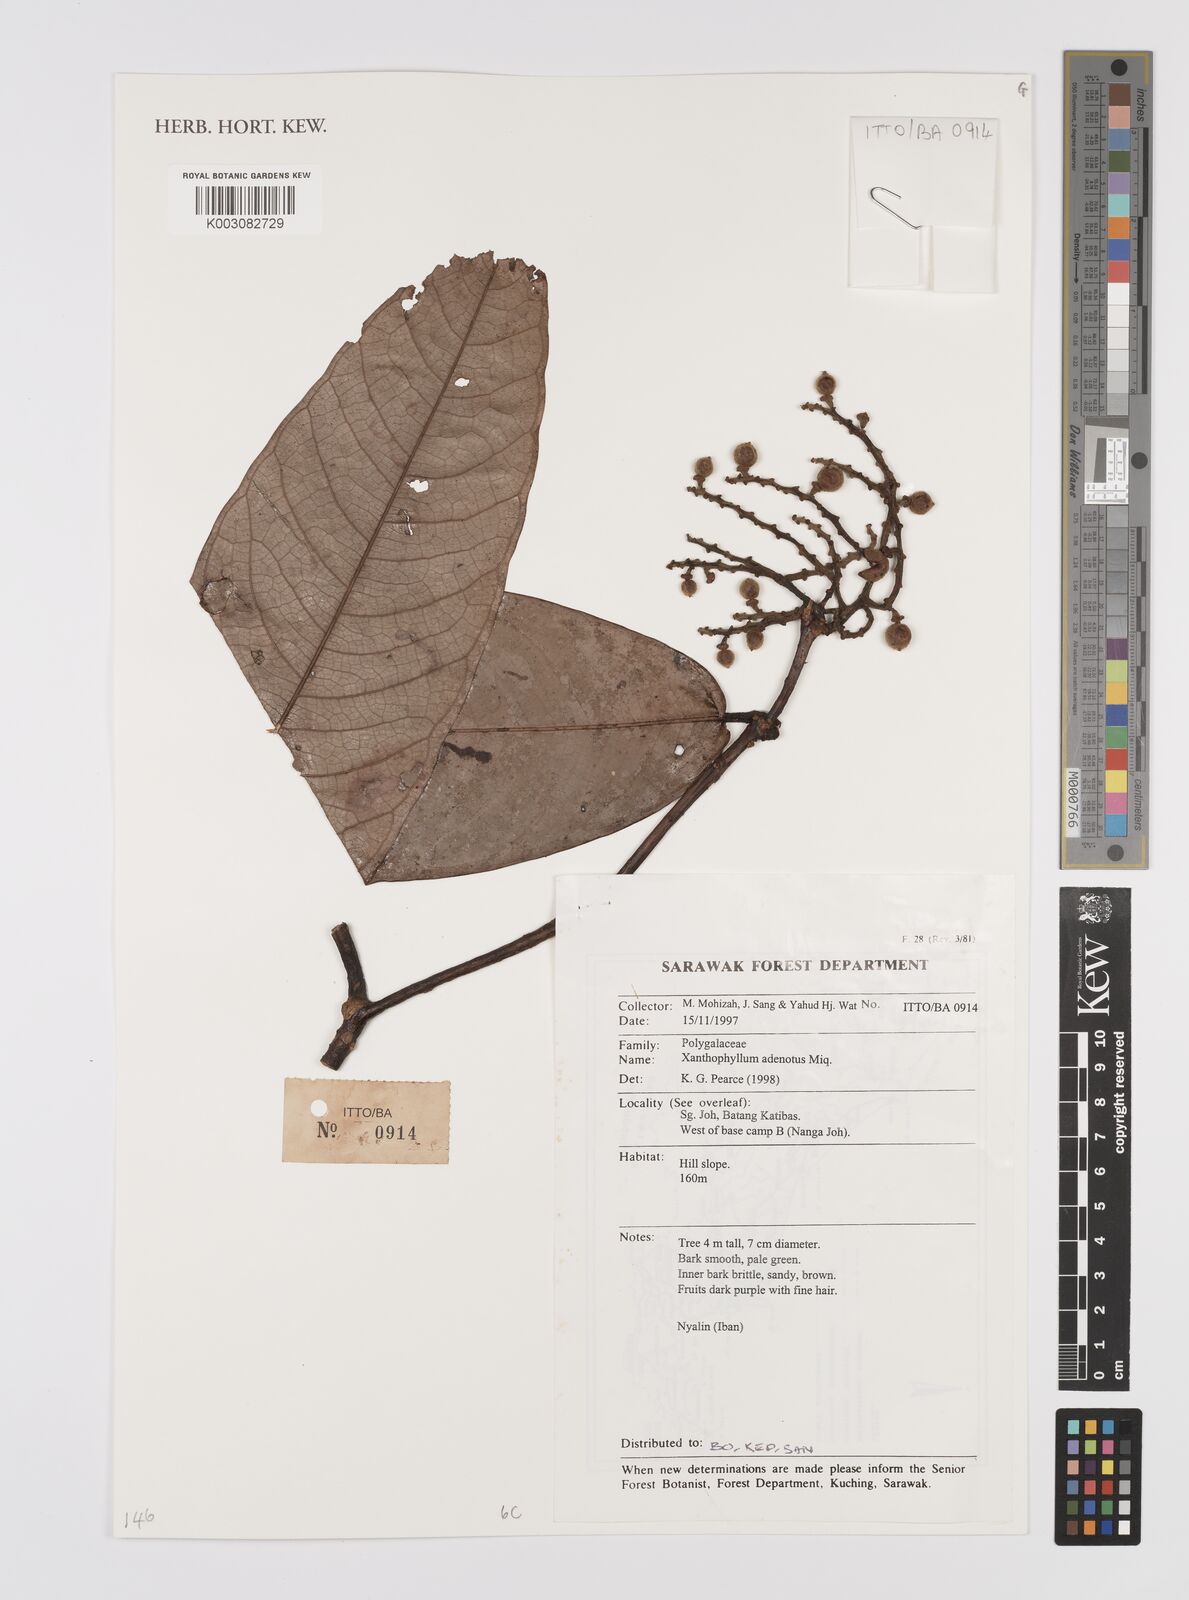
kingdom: Plantae
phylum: Tracheophyta
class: Magnoliopsida
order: Fabales
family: Polygalaceae
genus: Xanthophyllum
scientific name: Xanthophyllum adenotus
